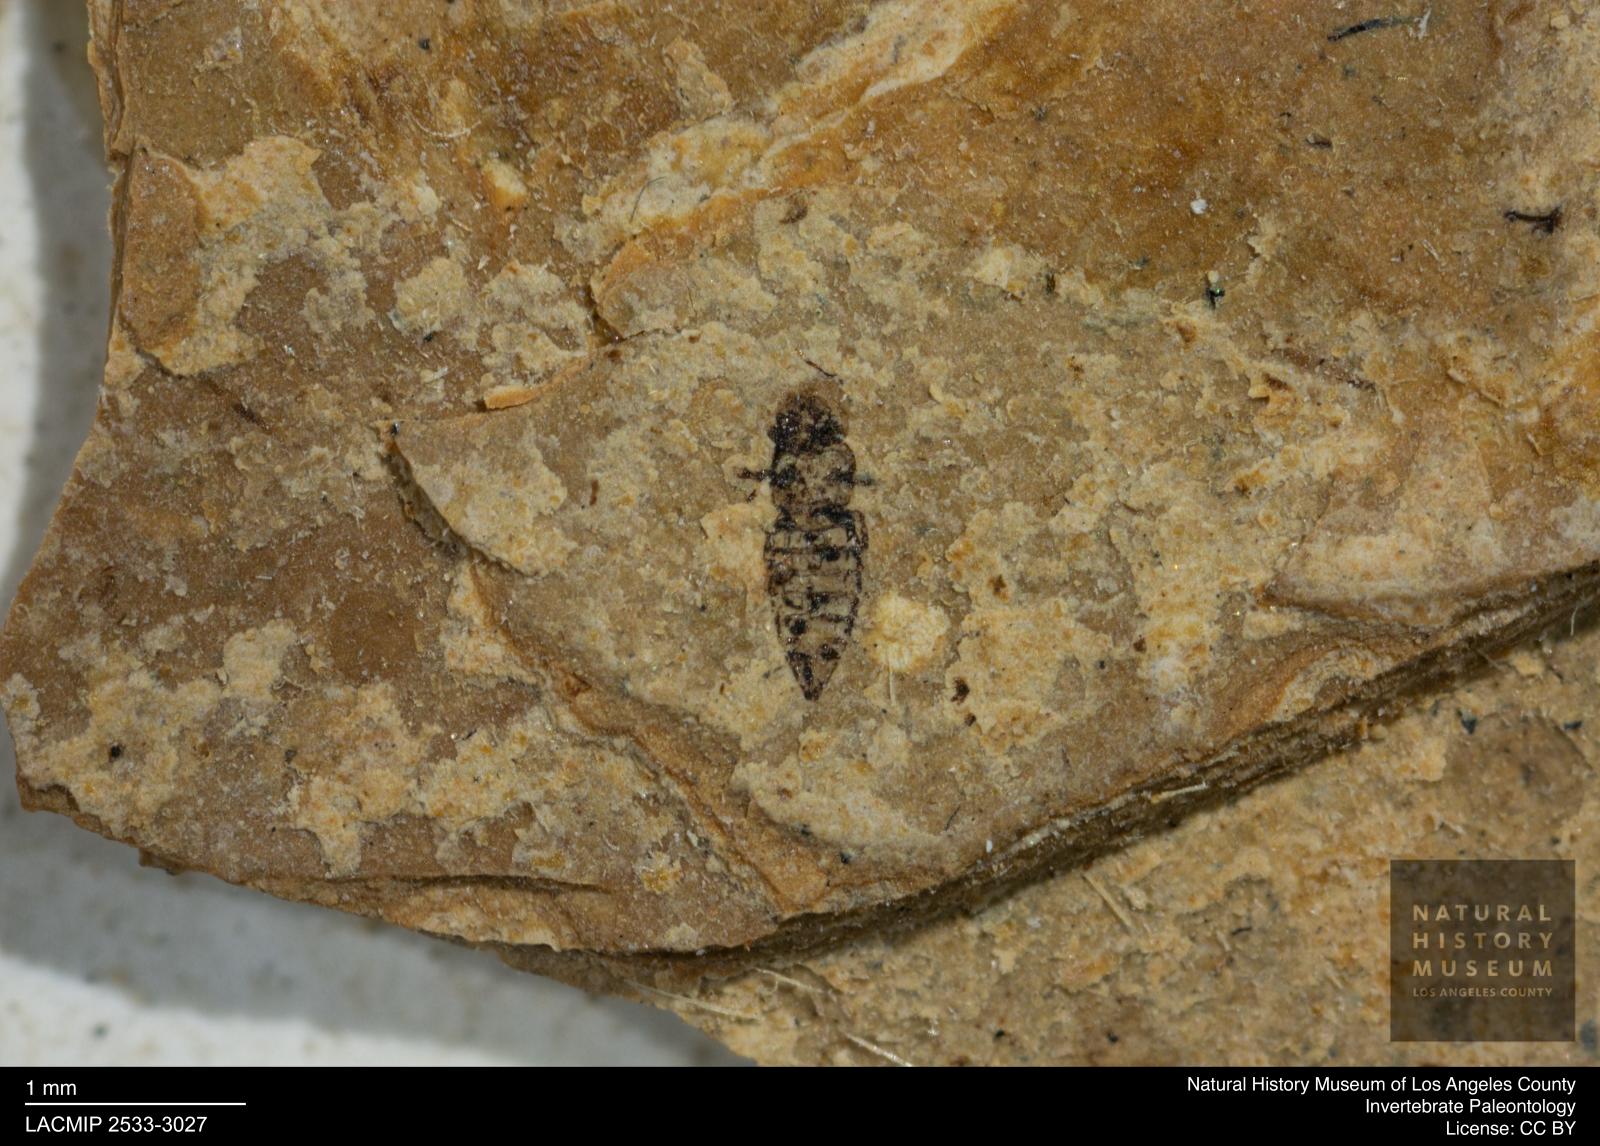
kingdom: Animalia
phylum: Arthropoda
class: Insecta
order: Thysanoptera
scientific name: Thysanoptera
